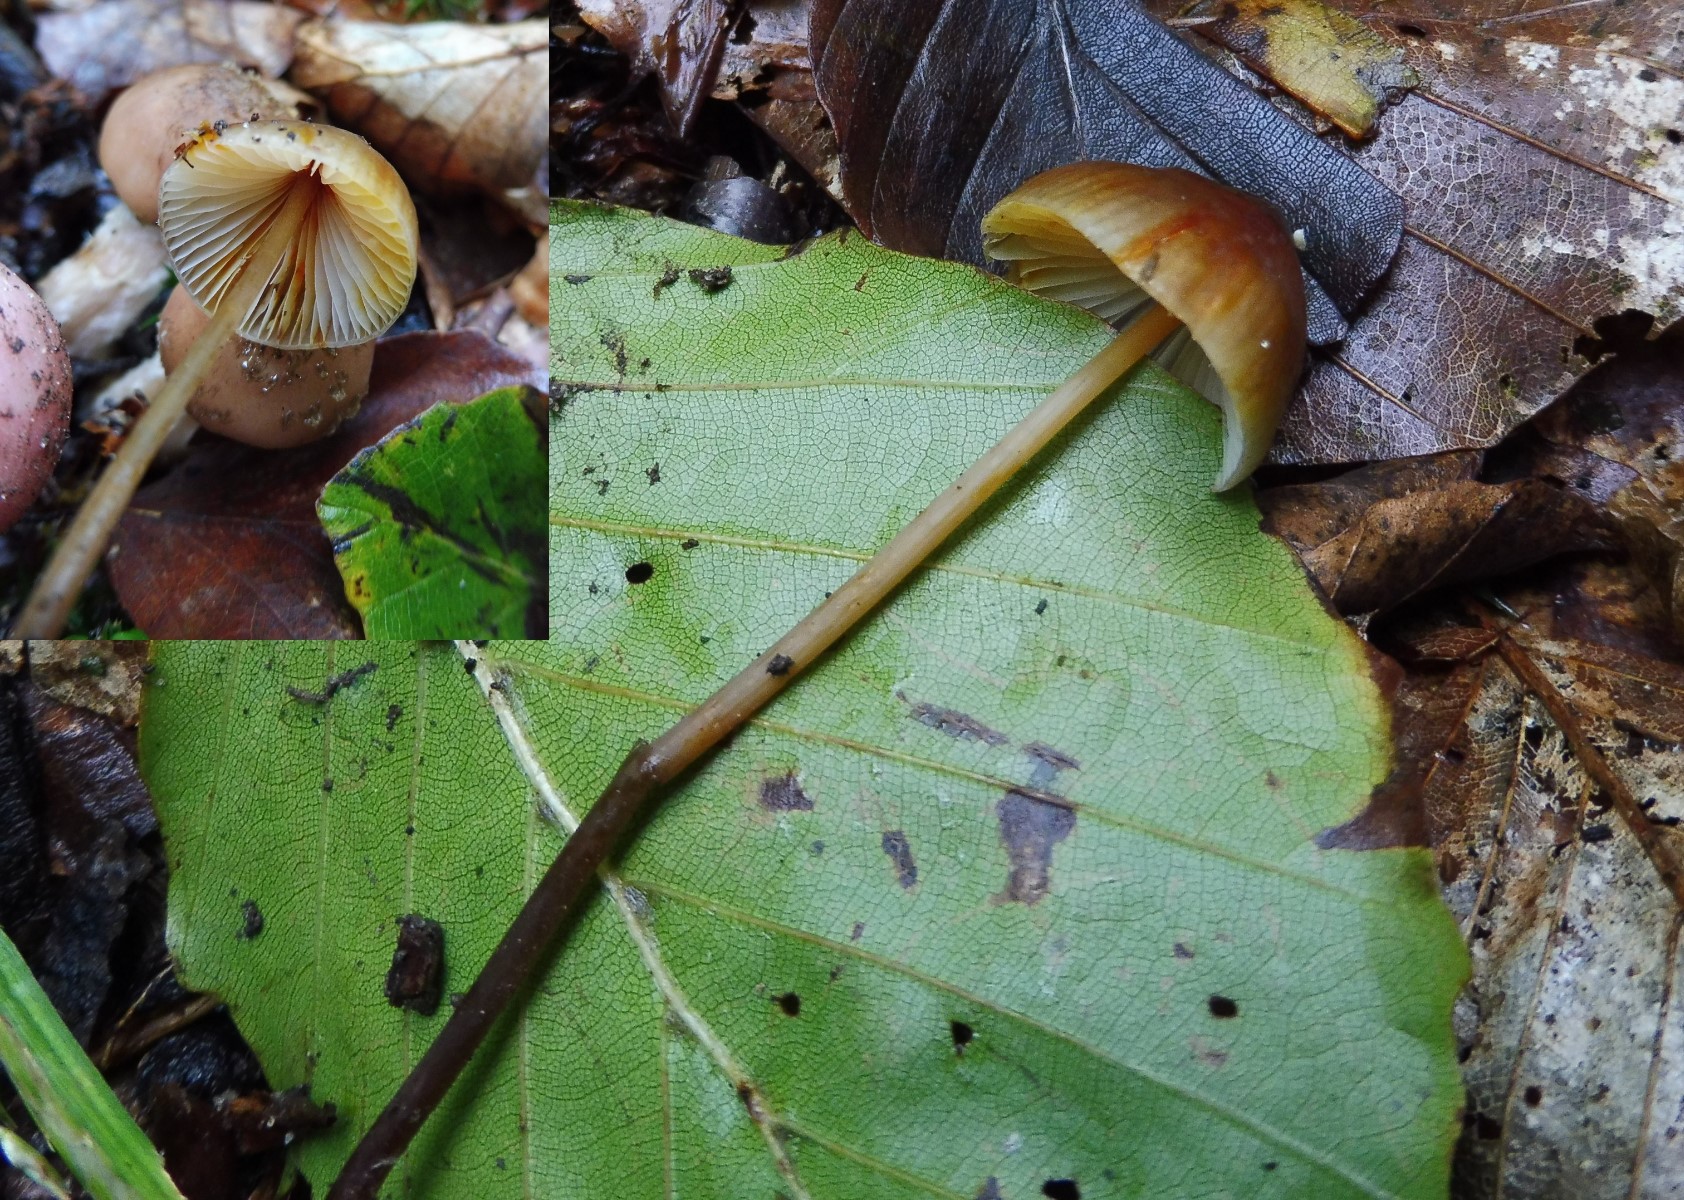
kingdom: Fungi
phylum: Basidiomycota
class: Agaricomycetes
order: Agaricales
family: Mycenaceae
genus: Mycena
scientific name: Mycena crocata
